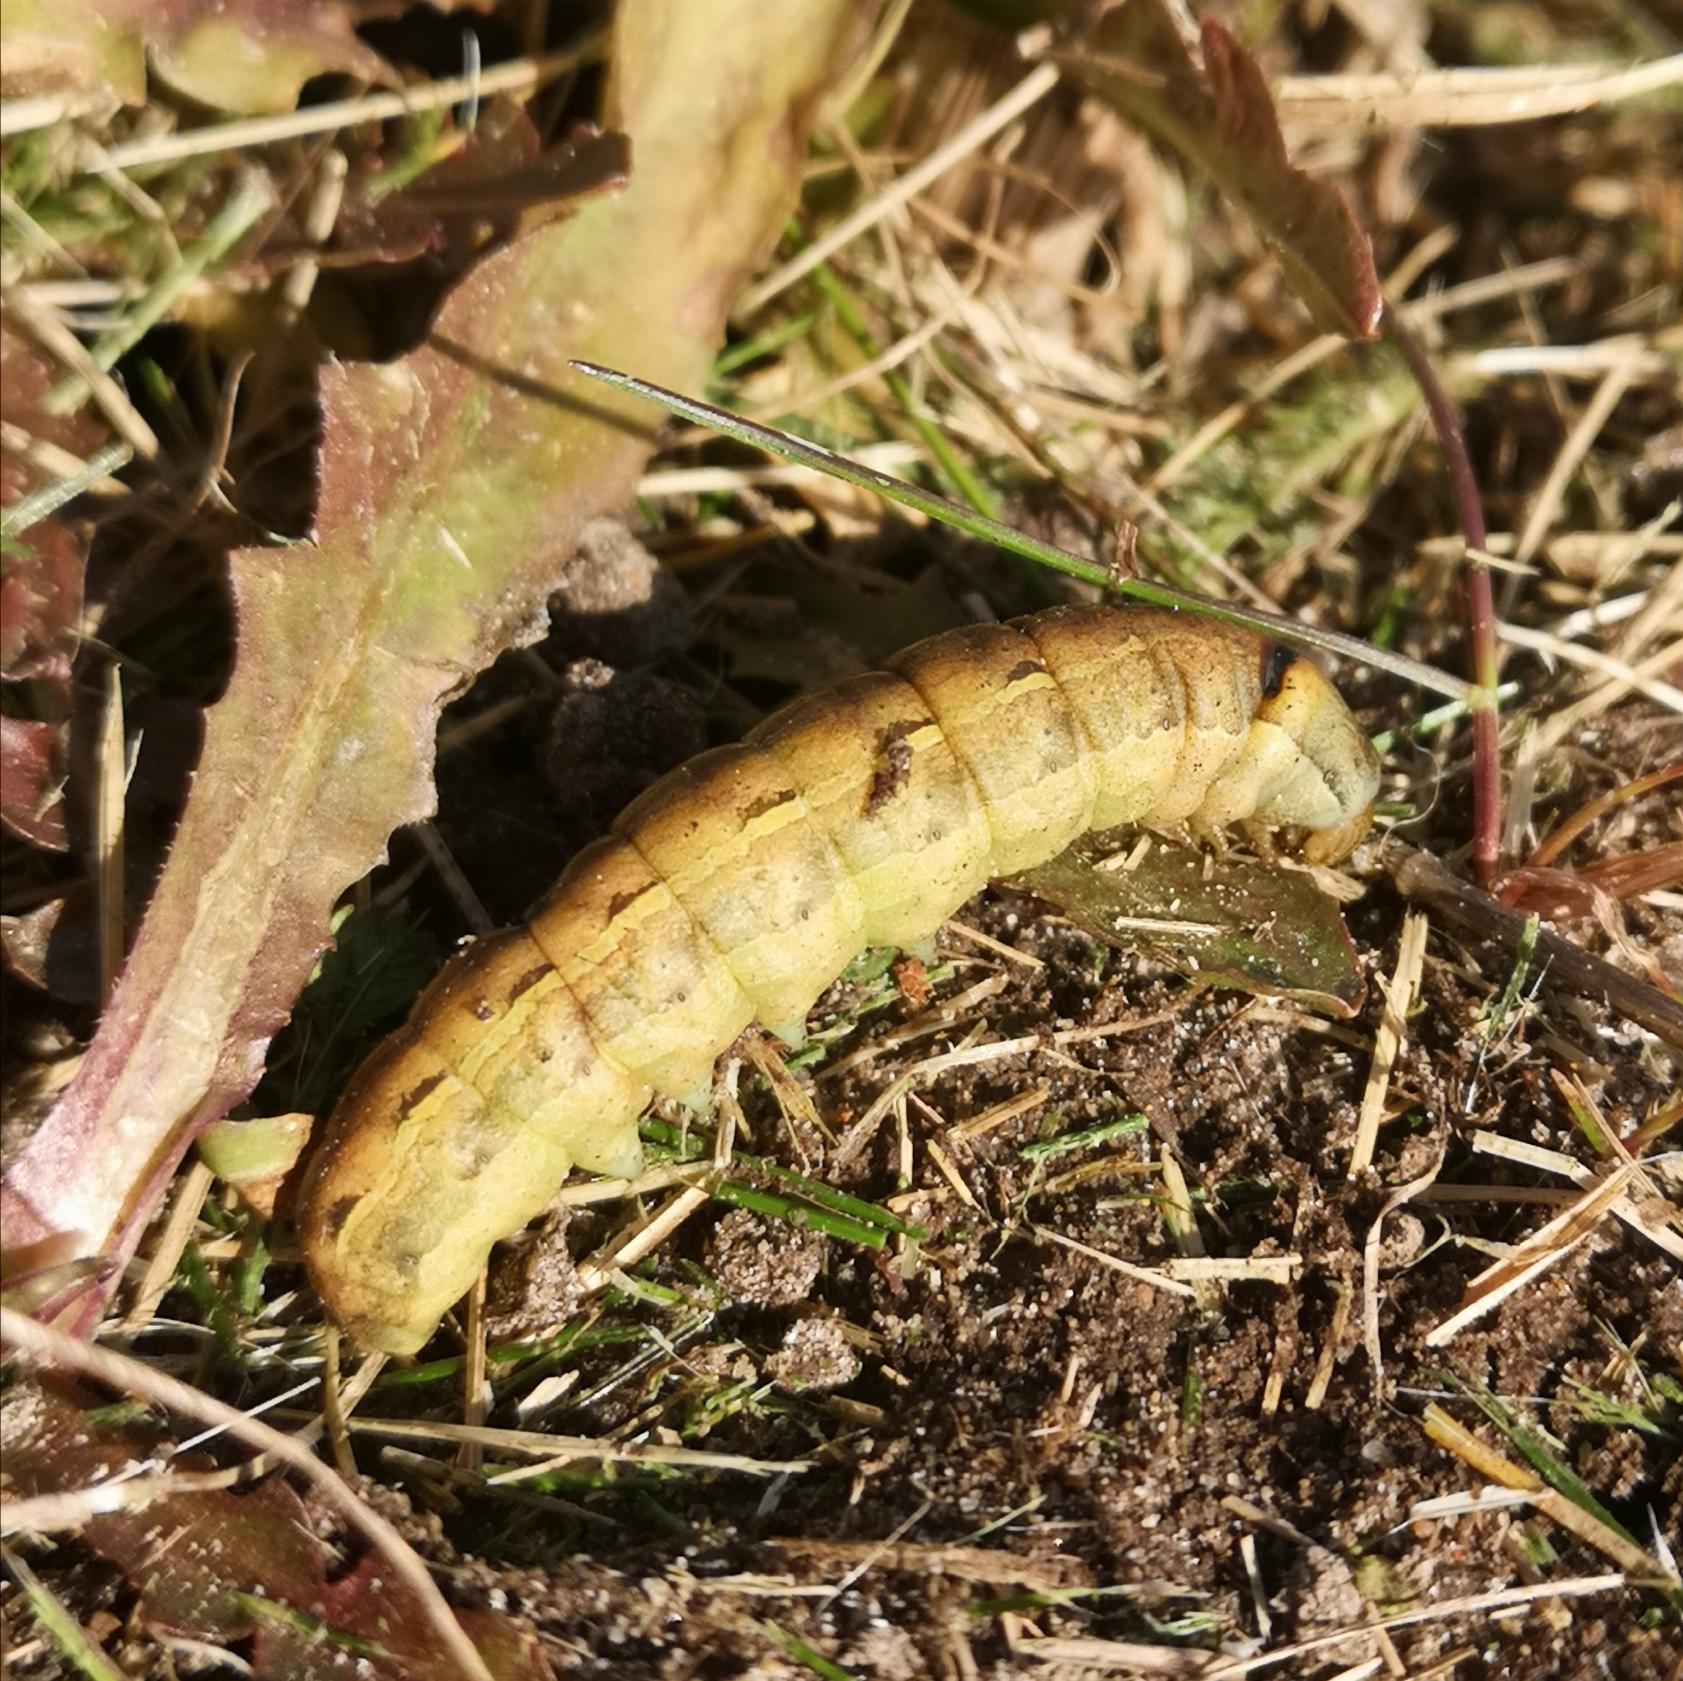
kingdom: Animalia
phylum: Arthropoda
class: Insecta
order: Lepidoptera
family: Noctuidae
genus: Noctua
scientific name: Noctua pronuba
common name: Stor smutugle
